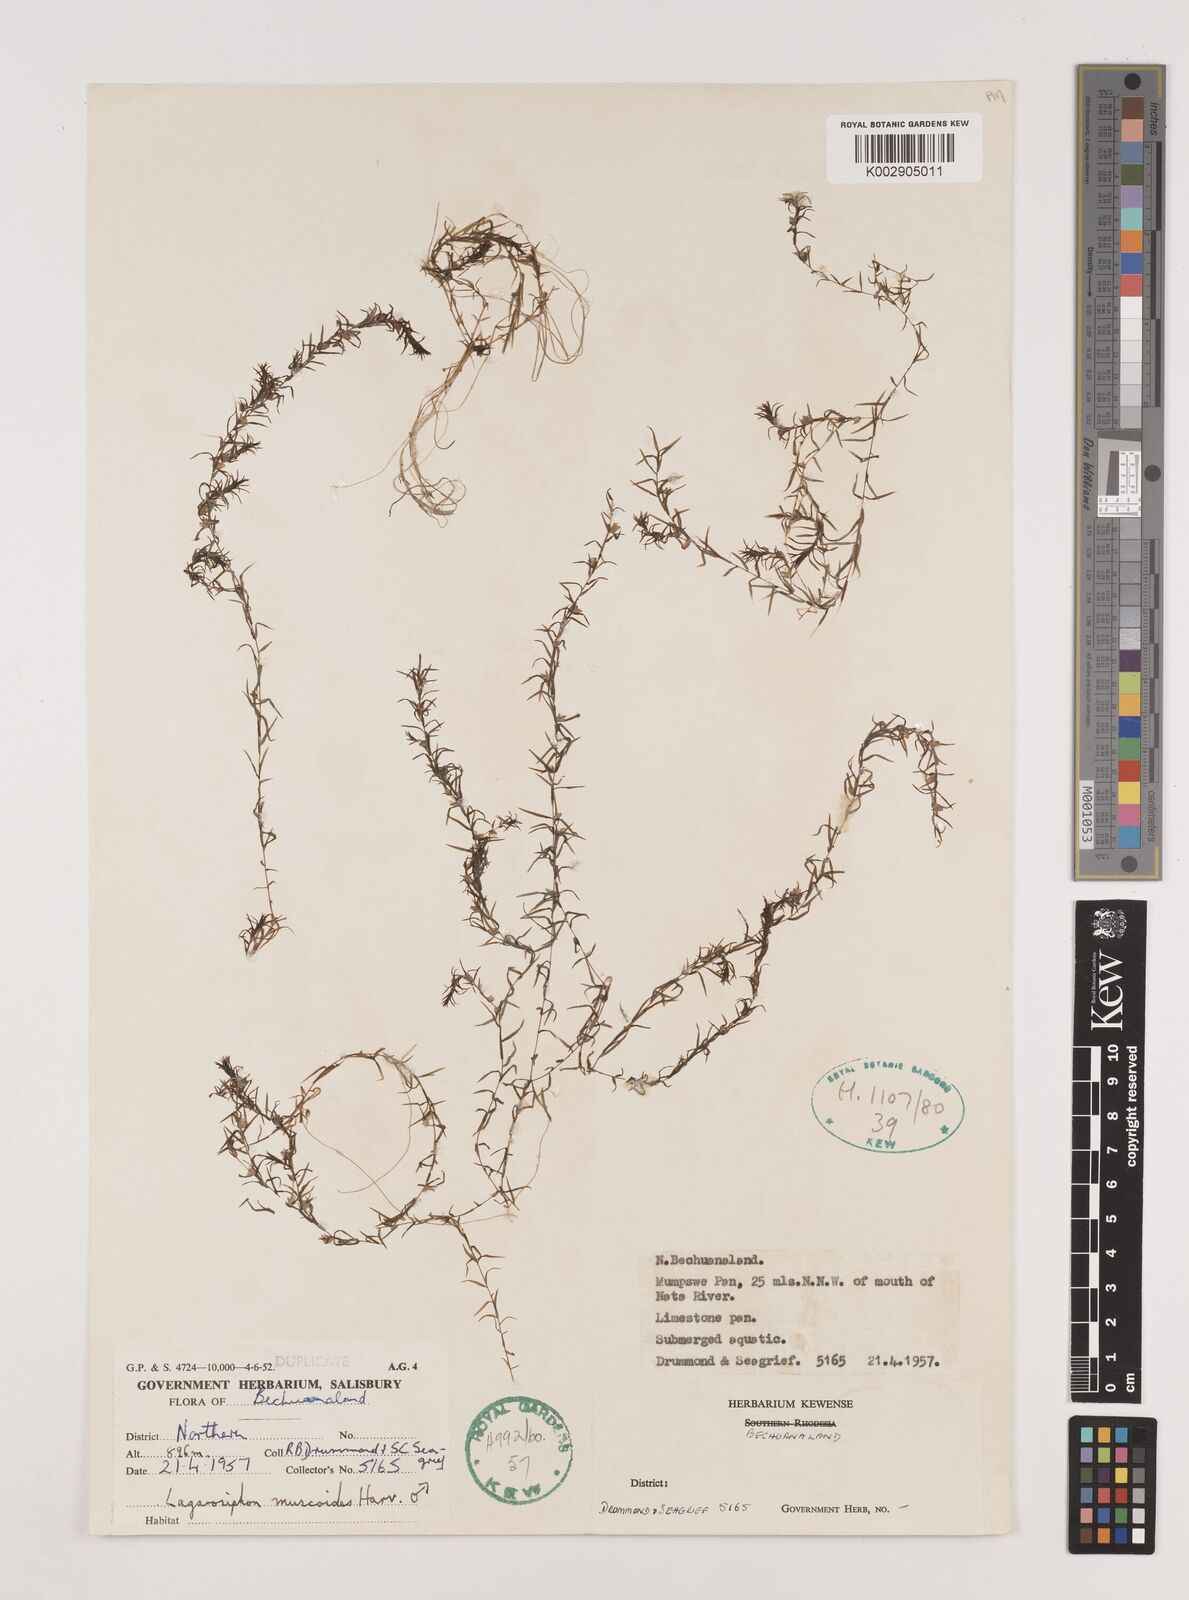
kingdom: Plantae
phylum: Tracheophyta
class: Liliopsida
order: Alismatales
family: Hydrocharitaceae
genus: Lagarosiphon
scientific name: Lagarosiphon muscoides
